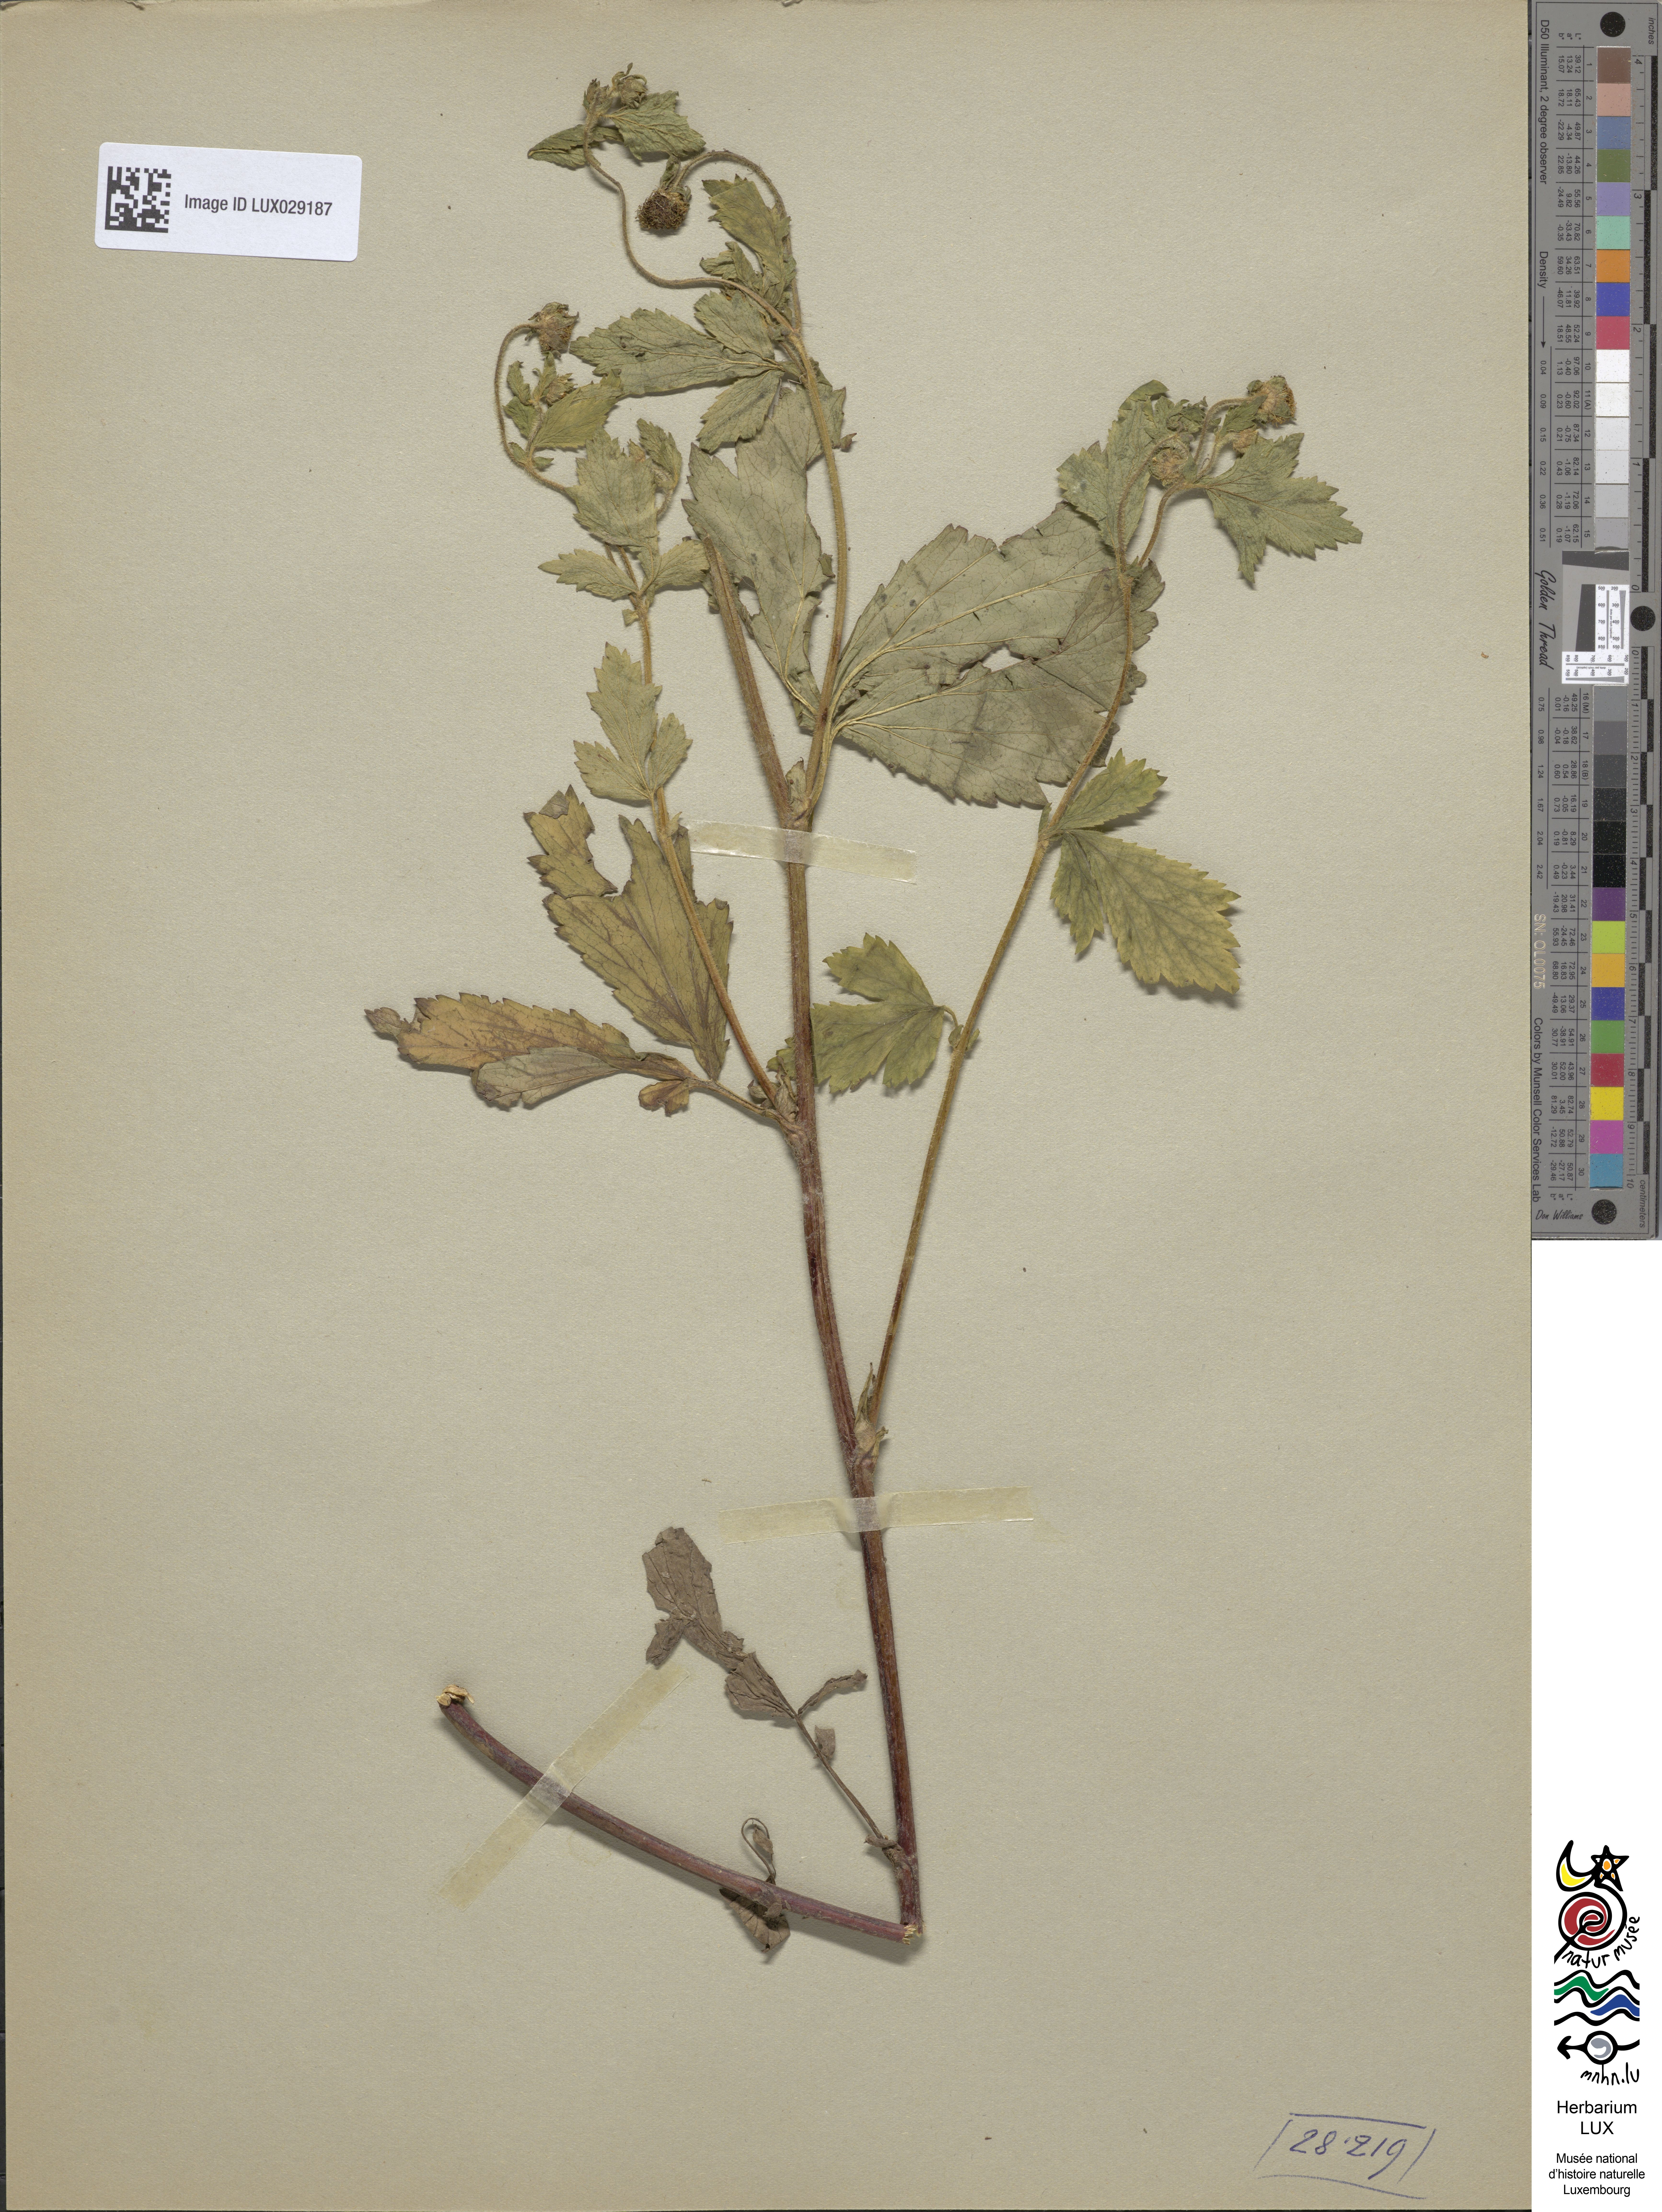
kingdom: Plantae
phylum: Tracheophyta
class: Magnoliopsida
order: Rosales
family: Rosaceae
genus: Geum
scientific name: Geum laciniatum
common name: Rough avens
